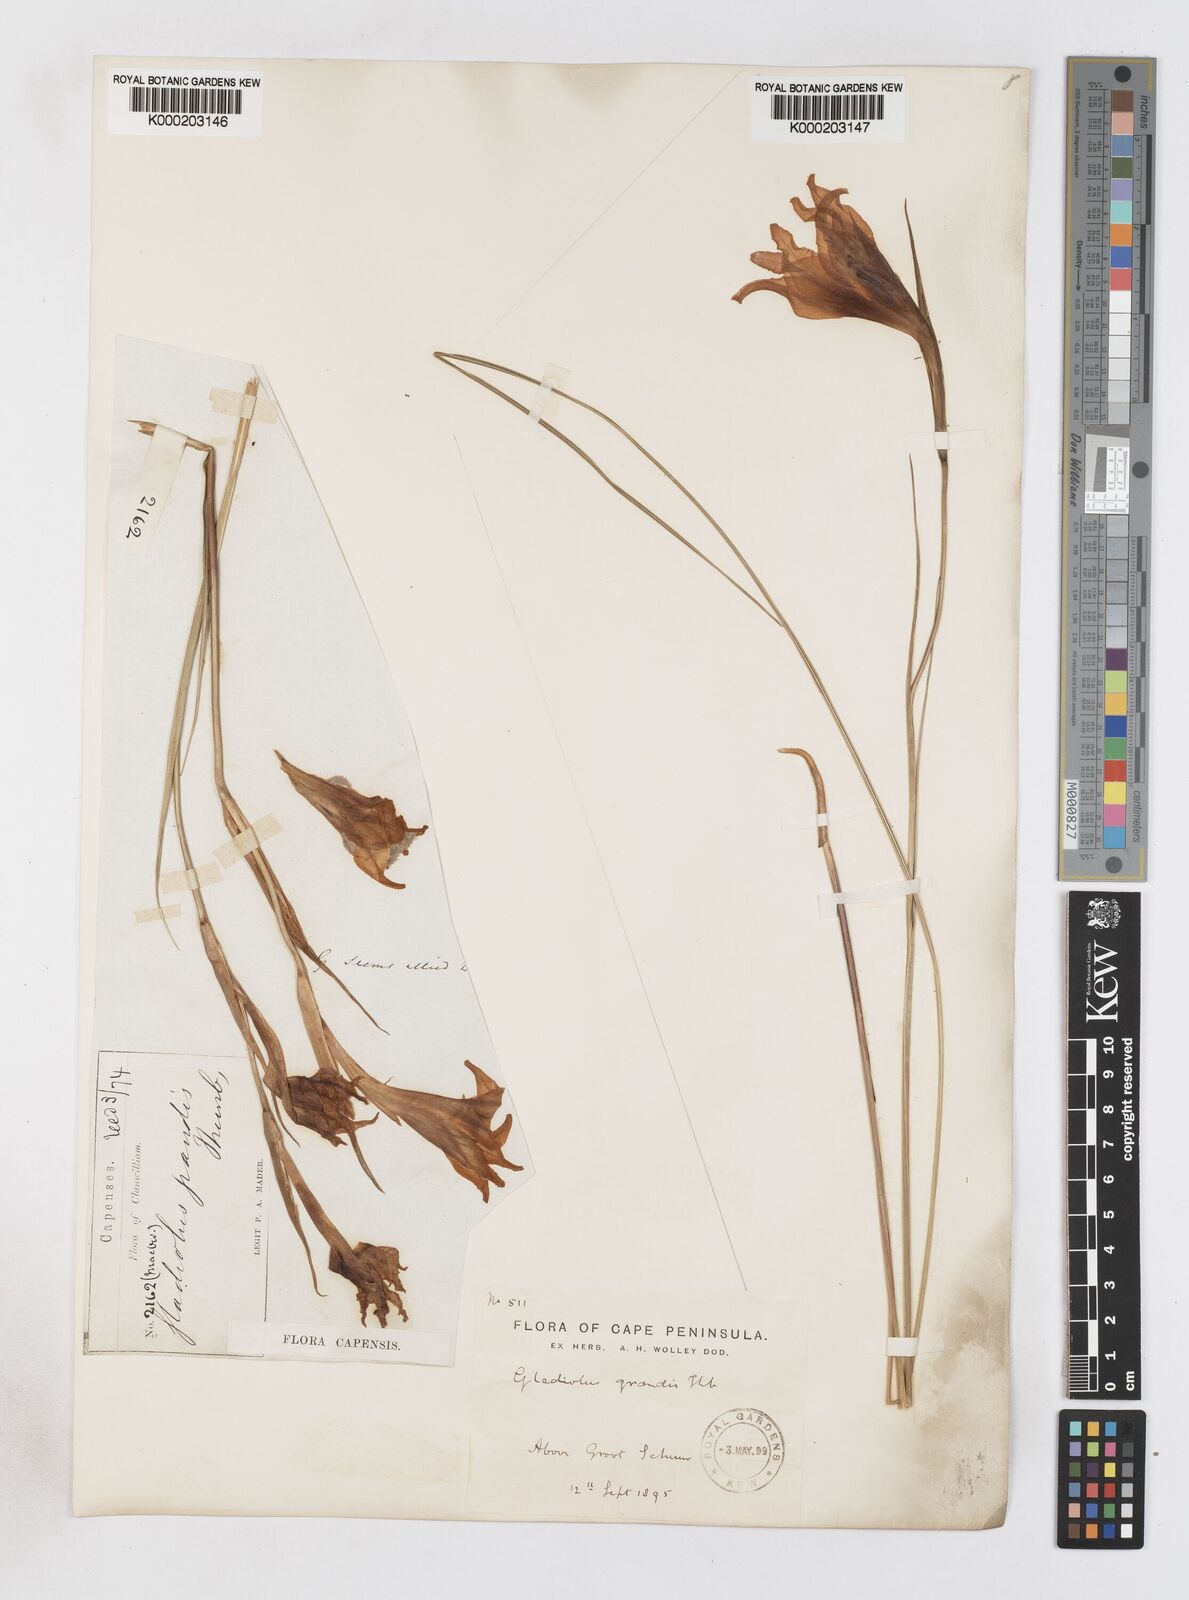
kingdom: Plantae
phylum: Tracheophyta
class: Liliopsida
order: Asparagales
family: Iridaceae
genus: Gladiolus
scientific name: Gladiolus liliaceus
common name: Large brown afrikaner
